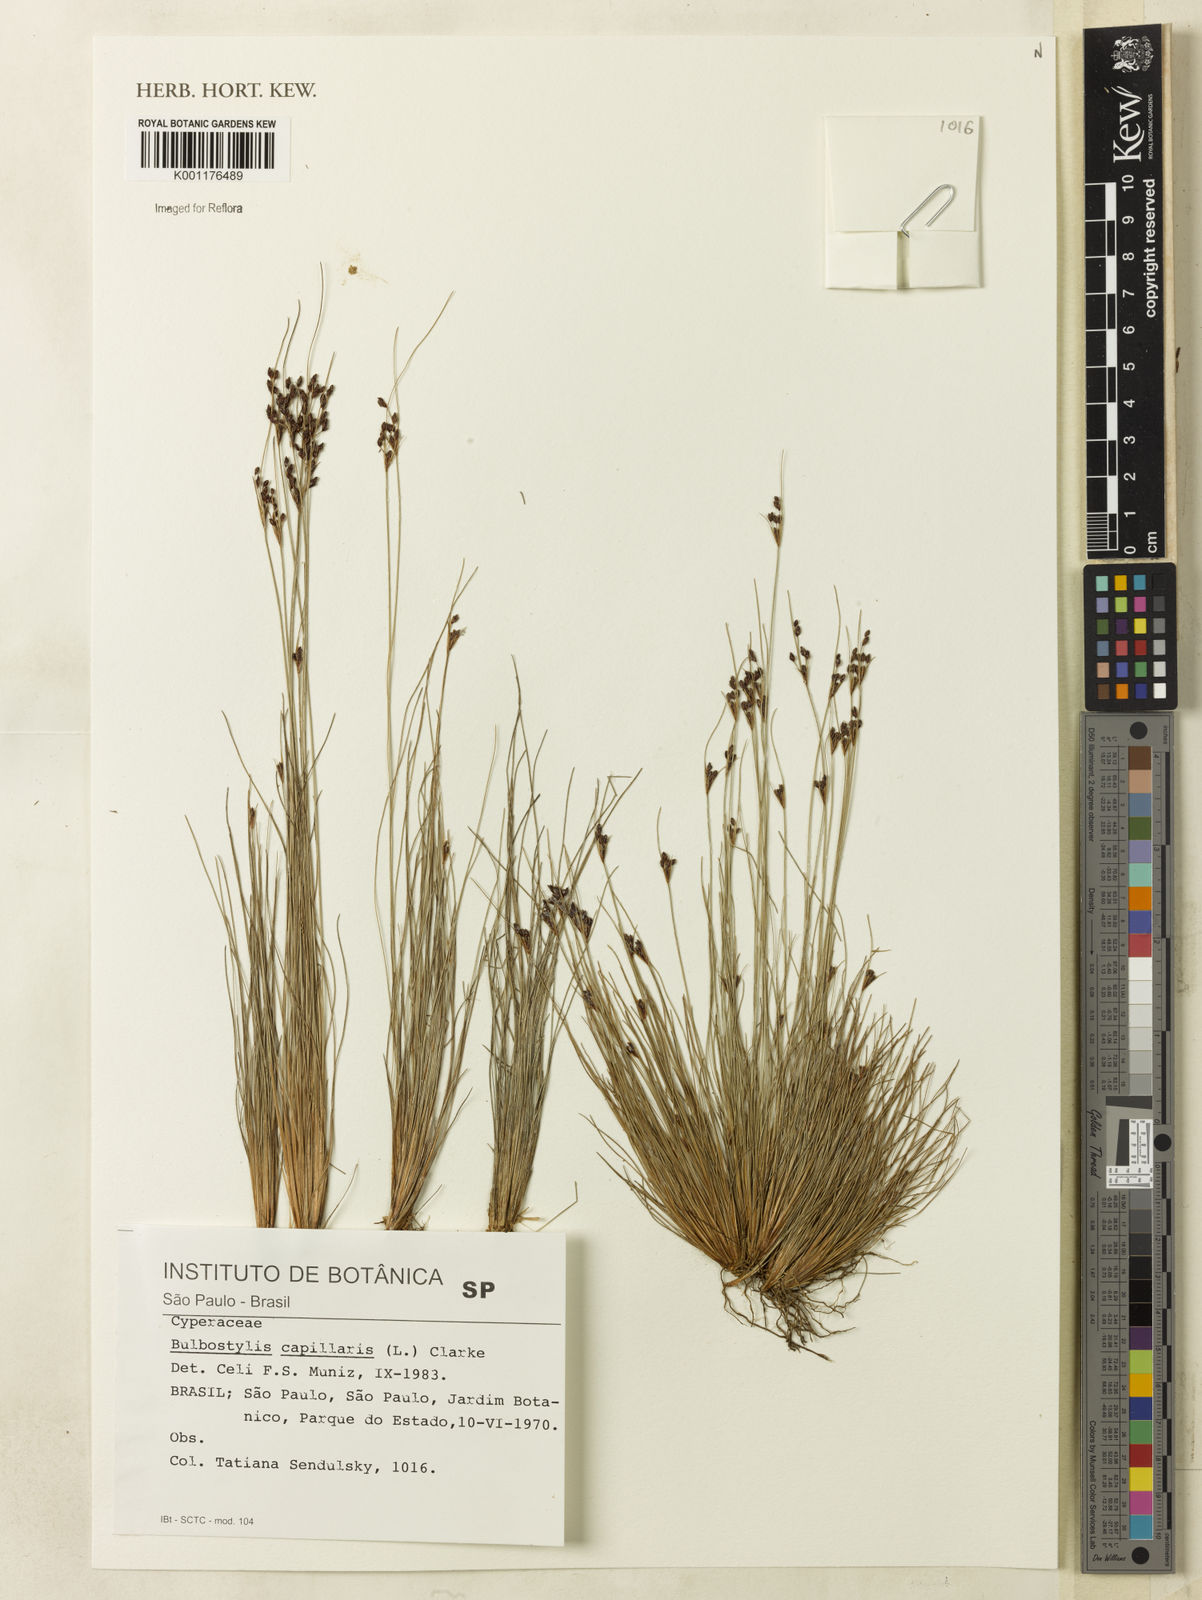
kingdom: Plantae
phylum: Tracheophyta
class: Liliopsida
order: Poales
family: Cyperaceae
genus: Bulbostylis
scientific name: Bulbostylis capillaris
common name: Densetuft hairsedge
